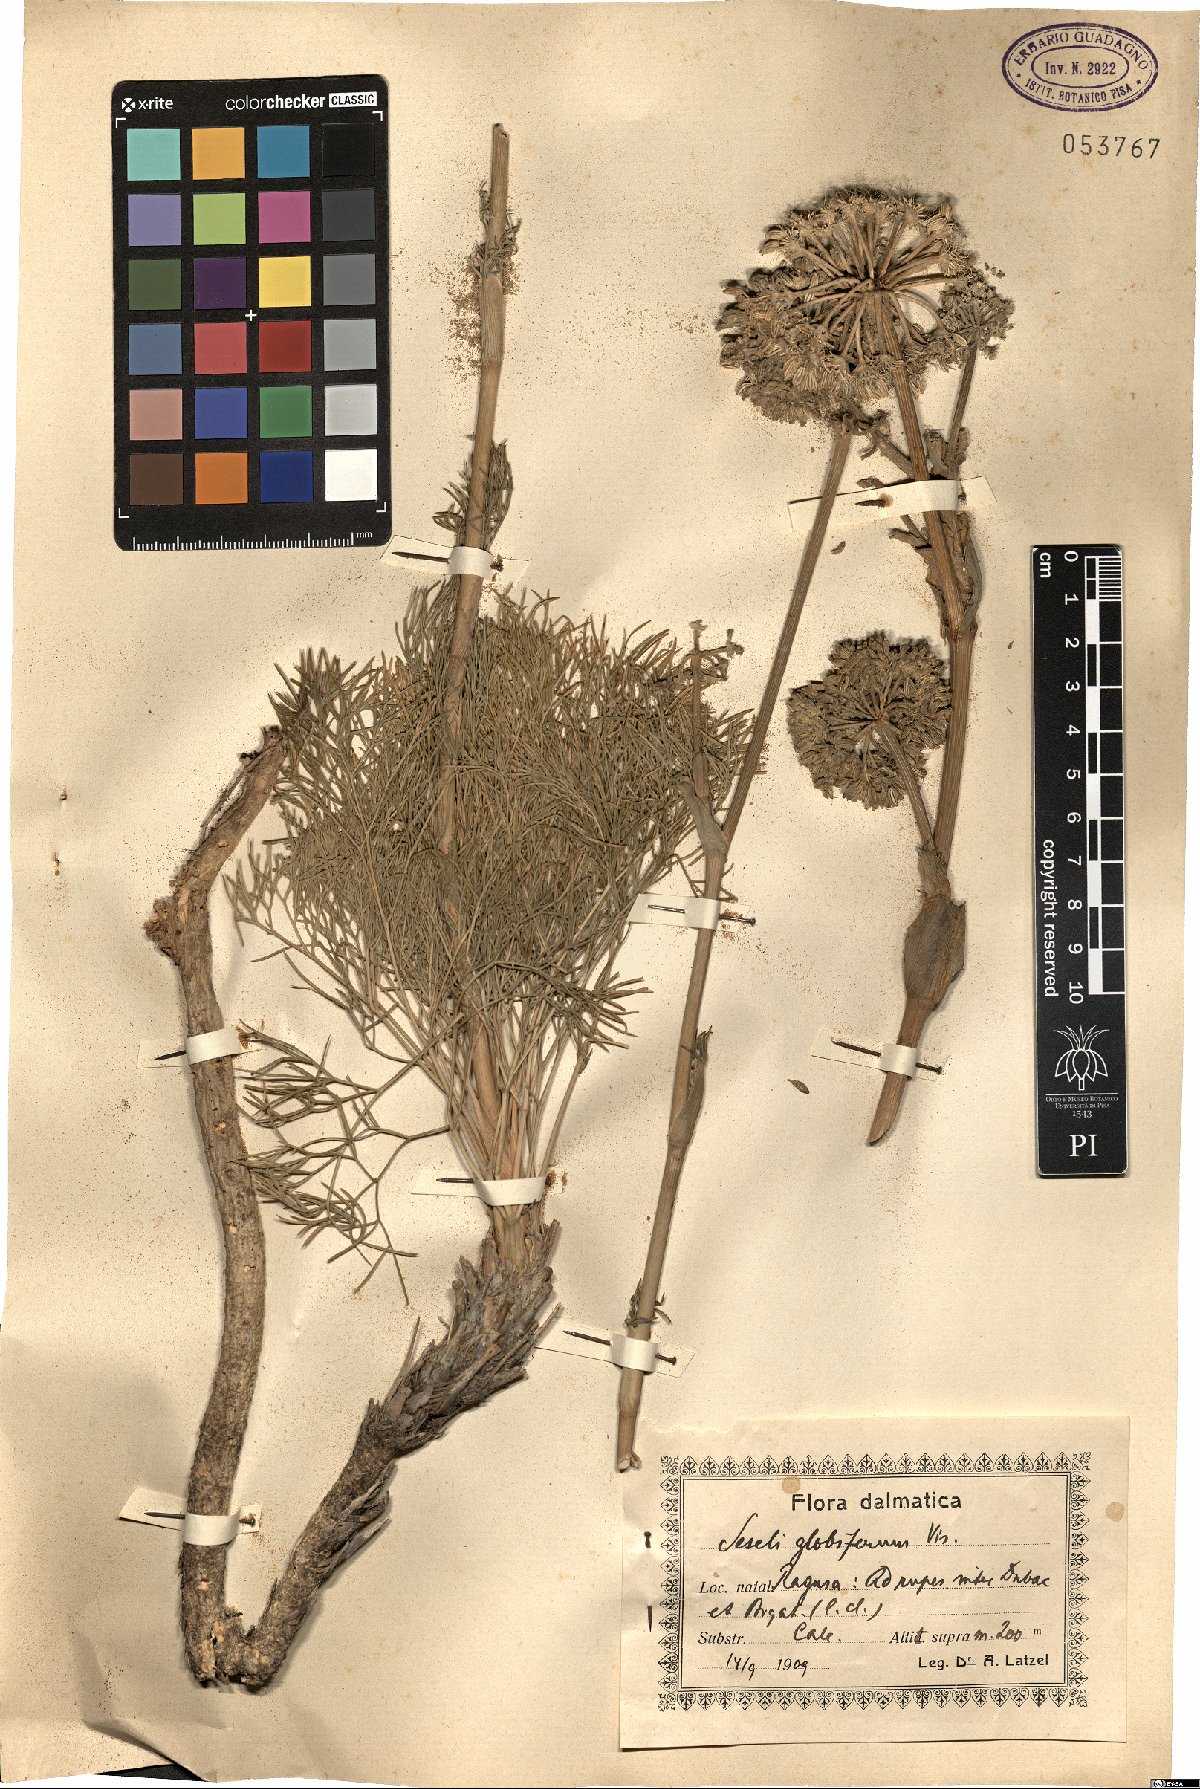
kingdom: Plantae
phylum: Tracheophyta
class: Magnoliopsida
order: Apiales
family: Apiaceae
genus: Seseli
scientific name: Seseli globiferum
